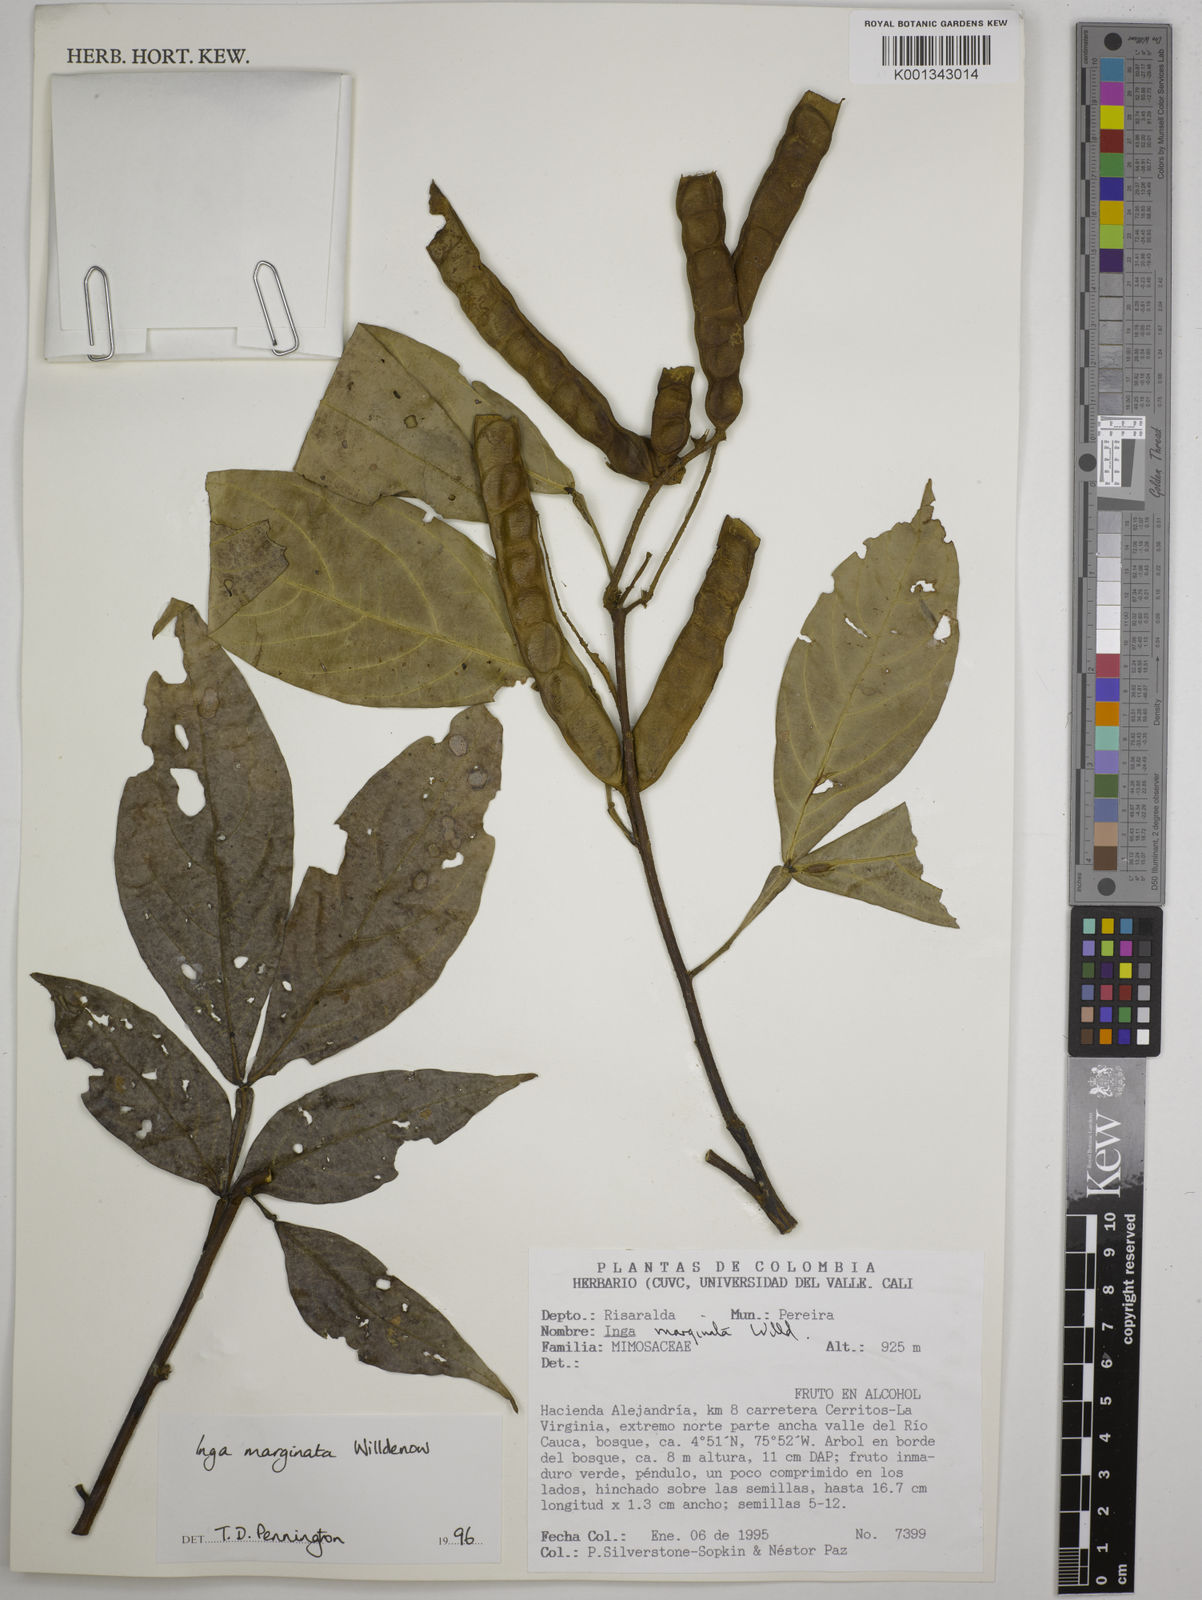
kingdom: Plantae
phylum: Tracheophyta
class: Magnoliopsida
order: Fabales
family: Fabaceae
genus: Inga
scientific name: Inga marginata
